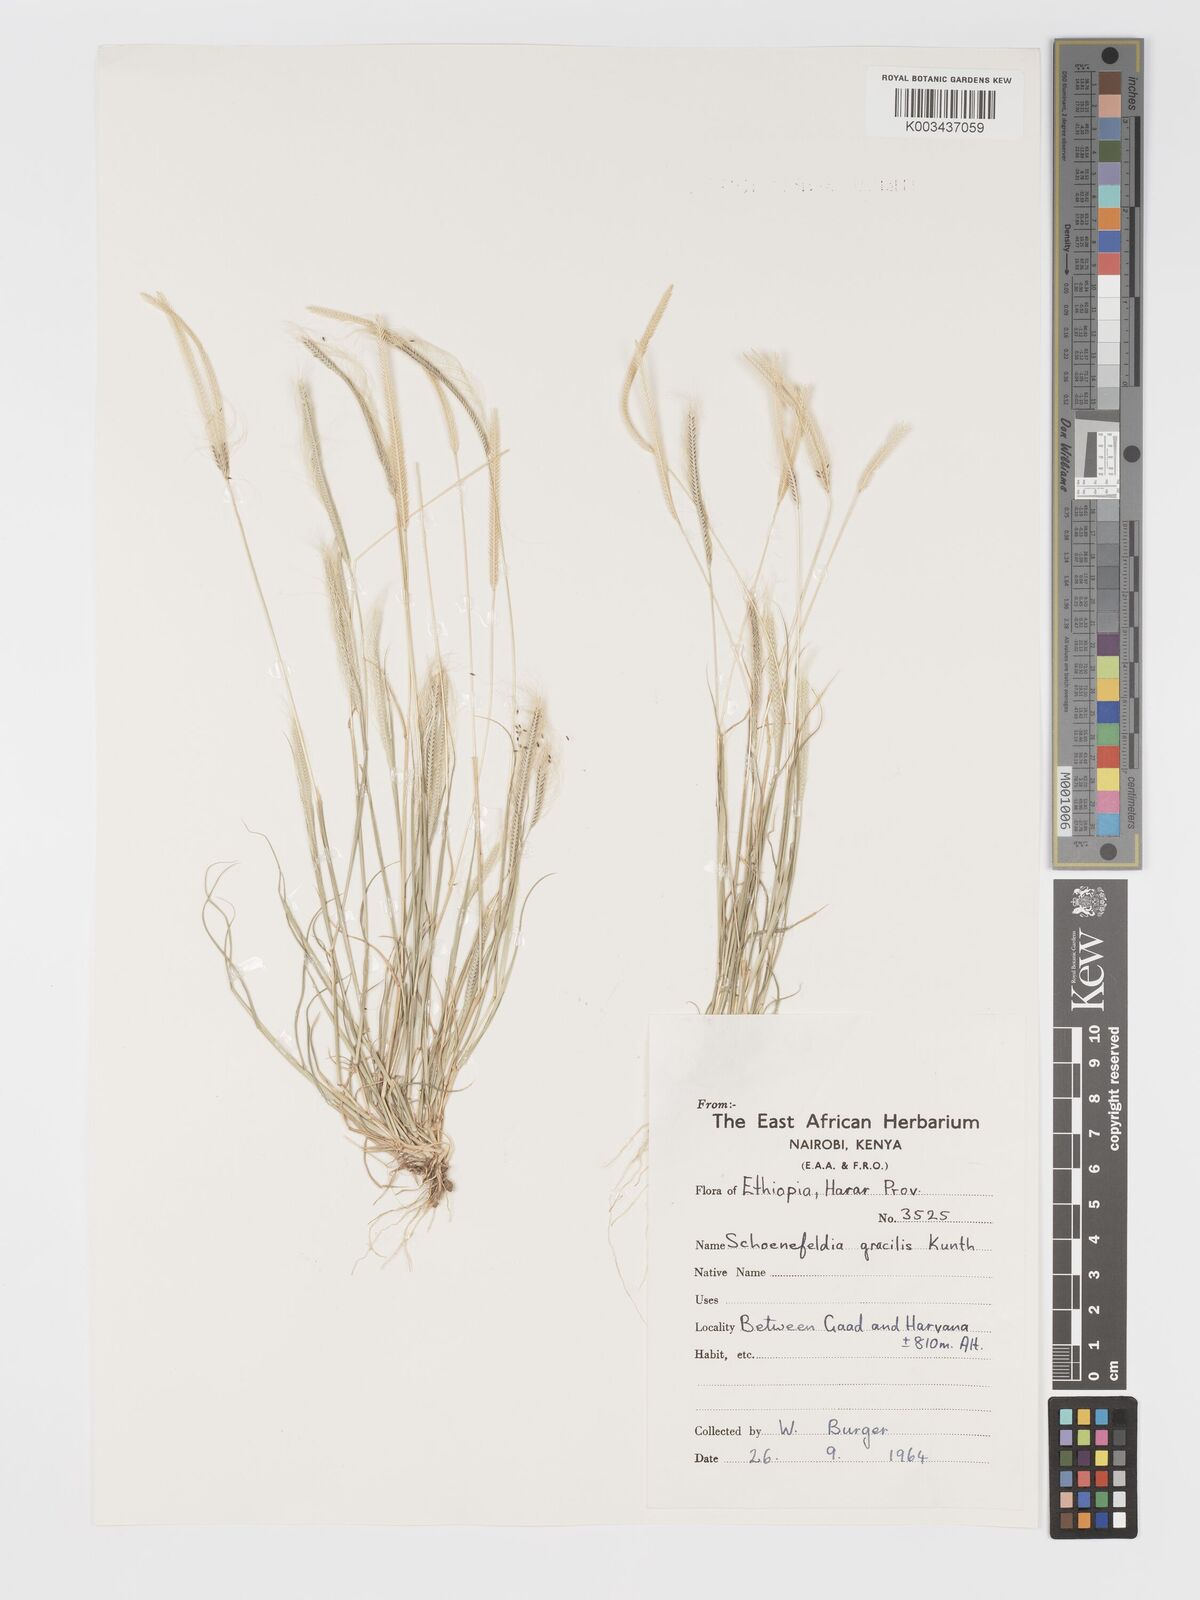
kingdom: Plantae
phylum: Tracheophyta
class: Liliopsida
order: Poales
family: Poaceae
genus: Schoenefeldia
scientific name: Schoenefeldia gracilis
